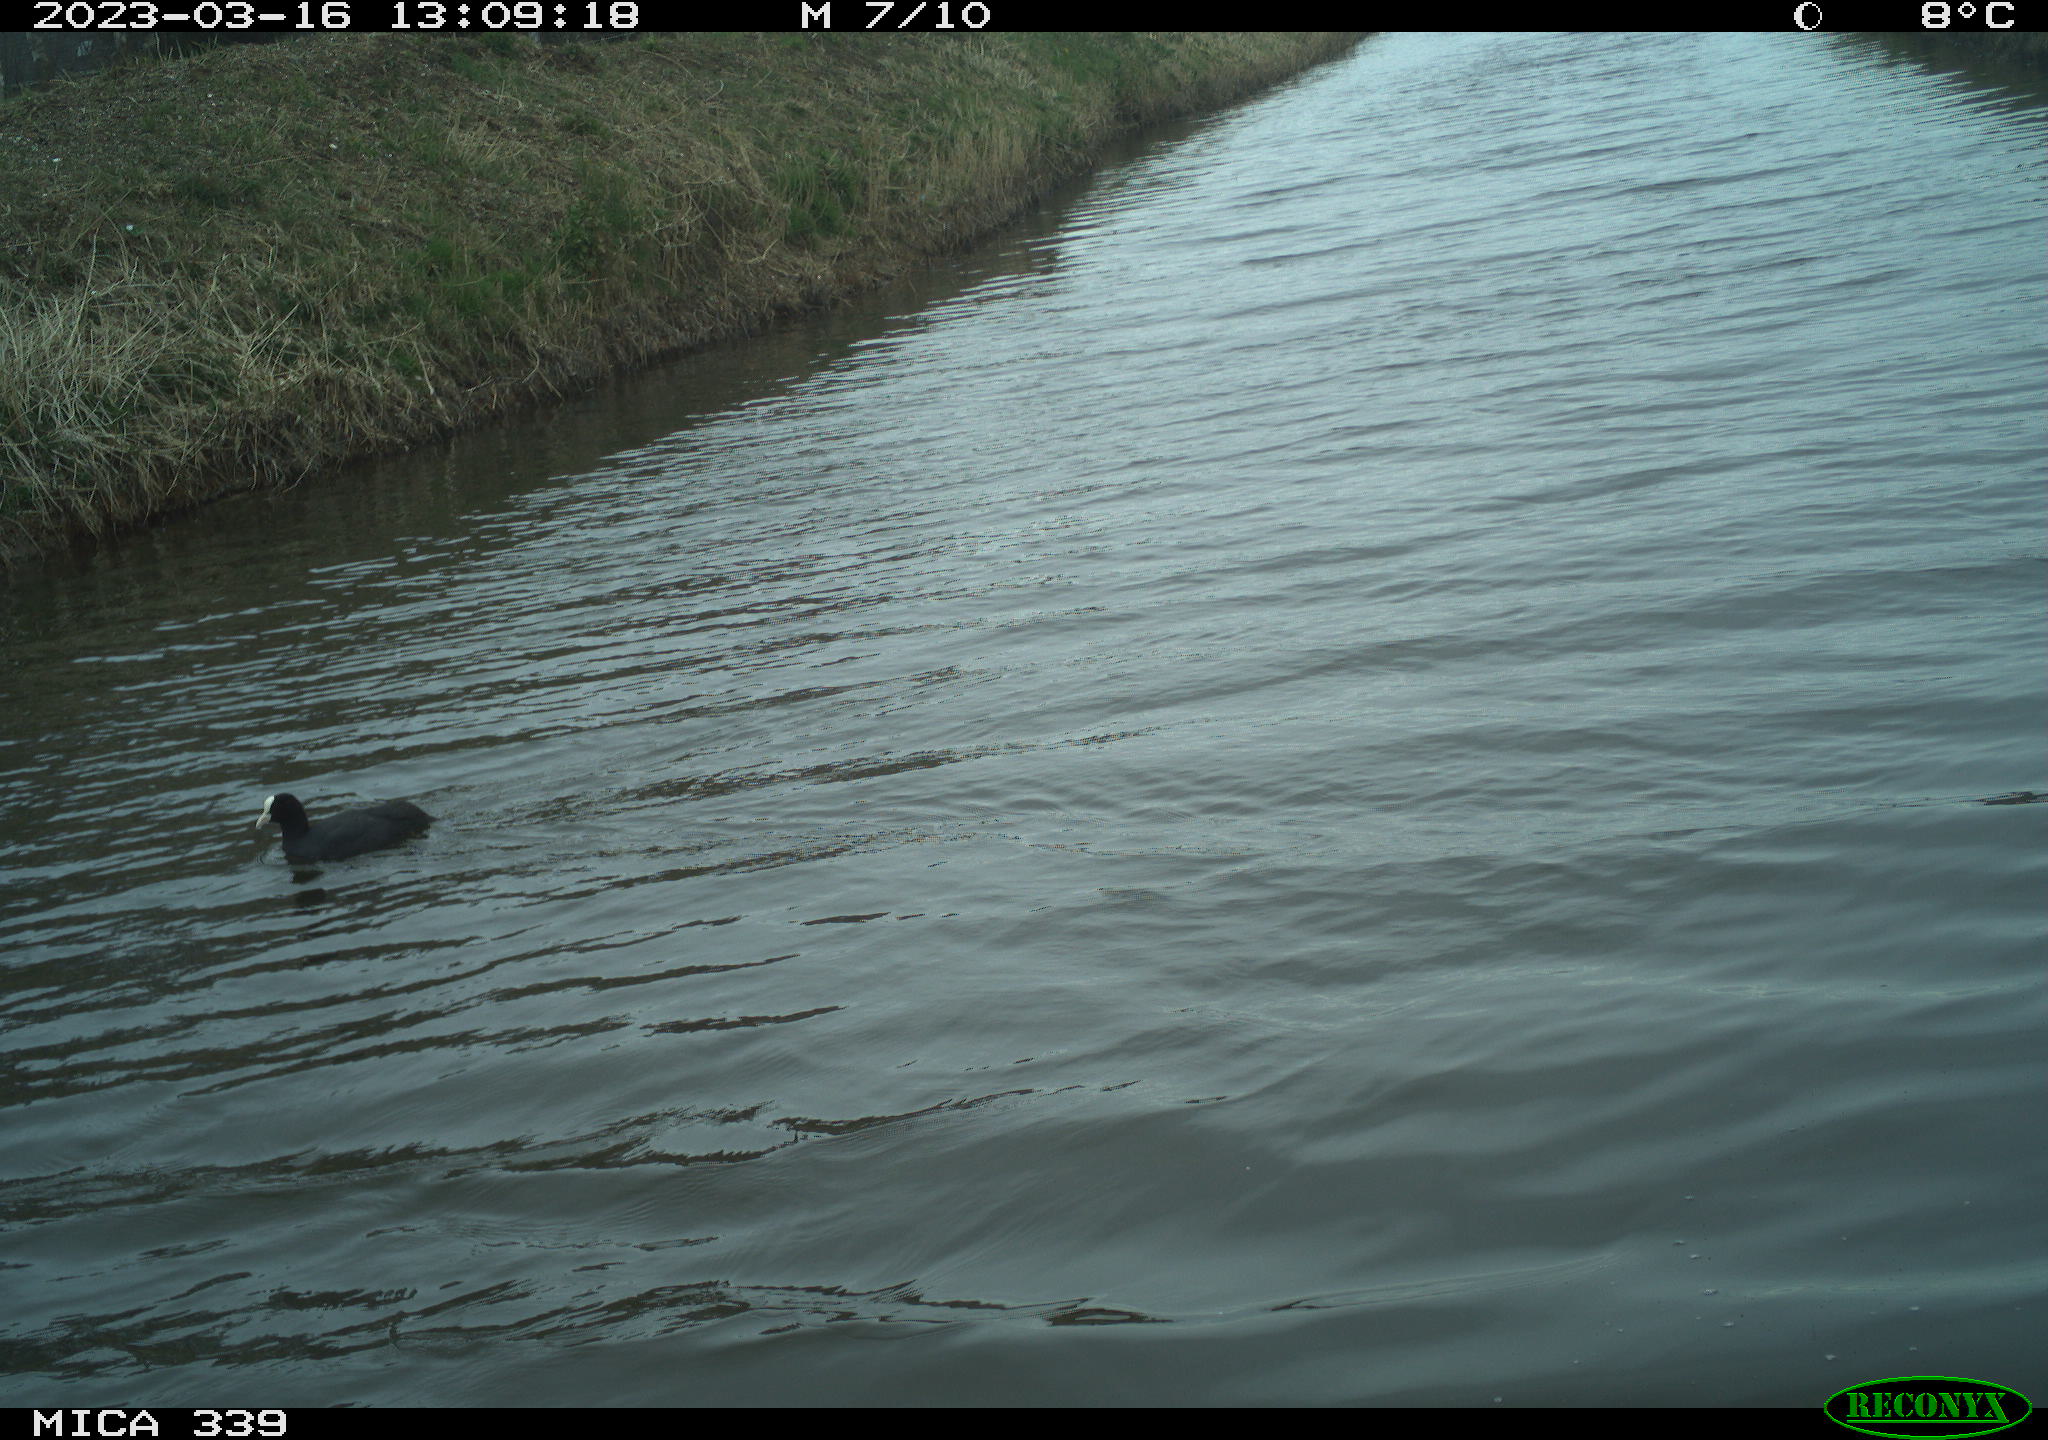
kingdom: Animalia
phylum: Chordata
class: Aves
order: Gruiformes
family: Rallidae
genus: Fulica
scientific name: Fulica atra
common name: Eurasian coot
